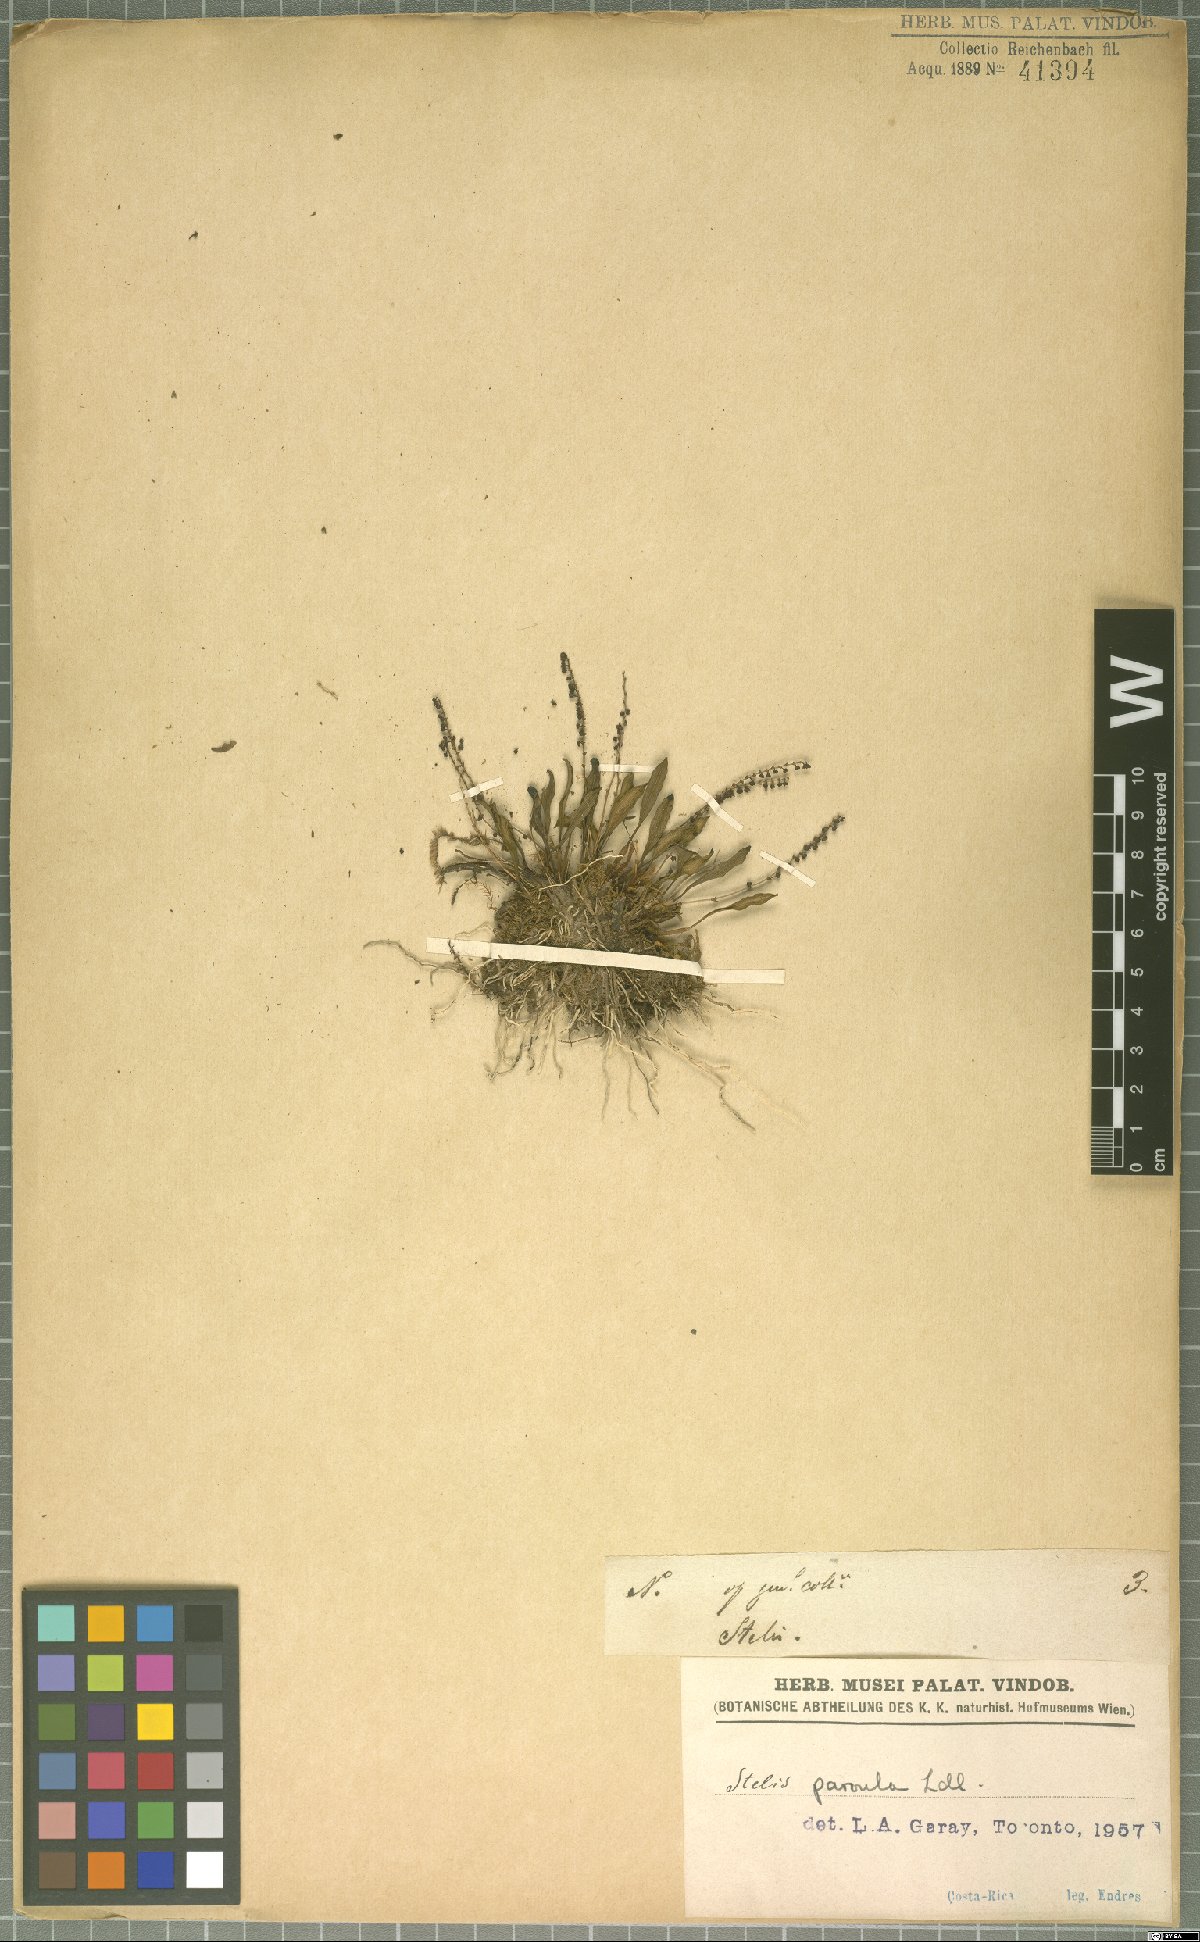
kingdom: Plantae
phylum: Tracheophyta
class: Liliopsida
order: Asparagales
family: Orchidaceae
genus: Stelis
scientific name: Stelis parvula
